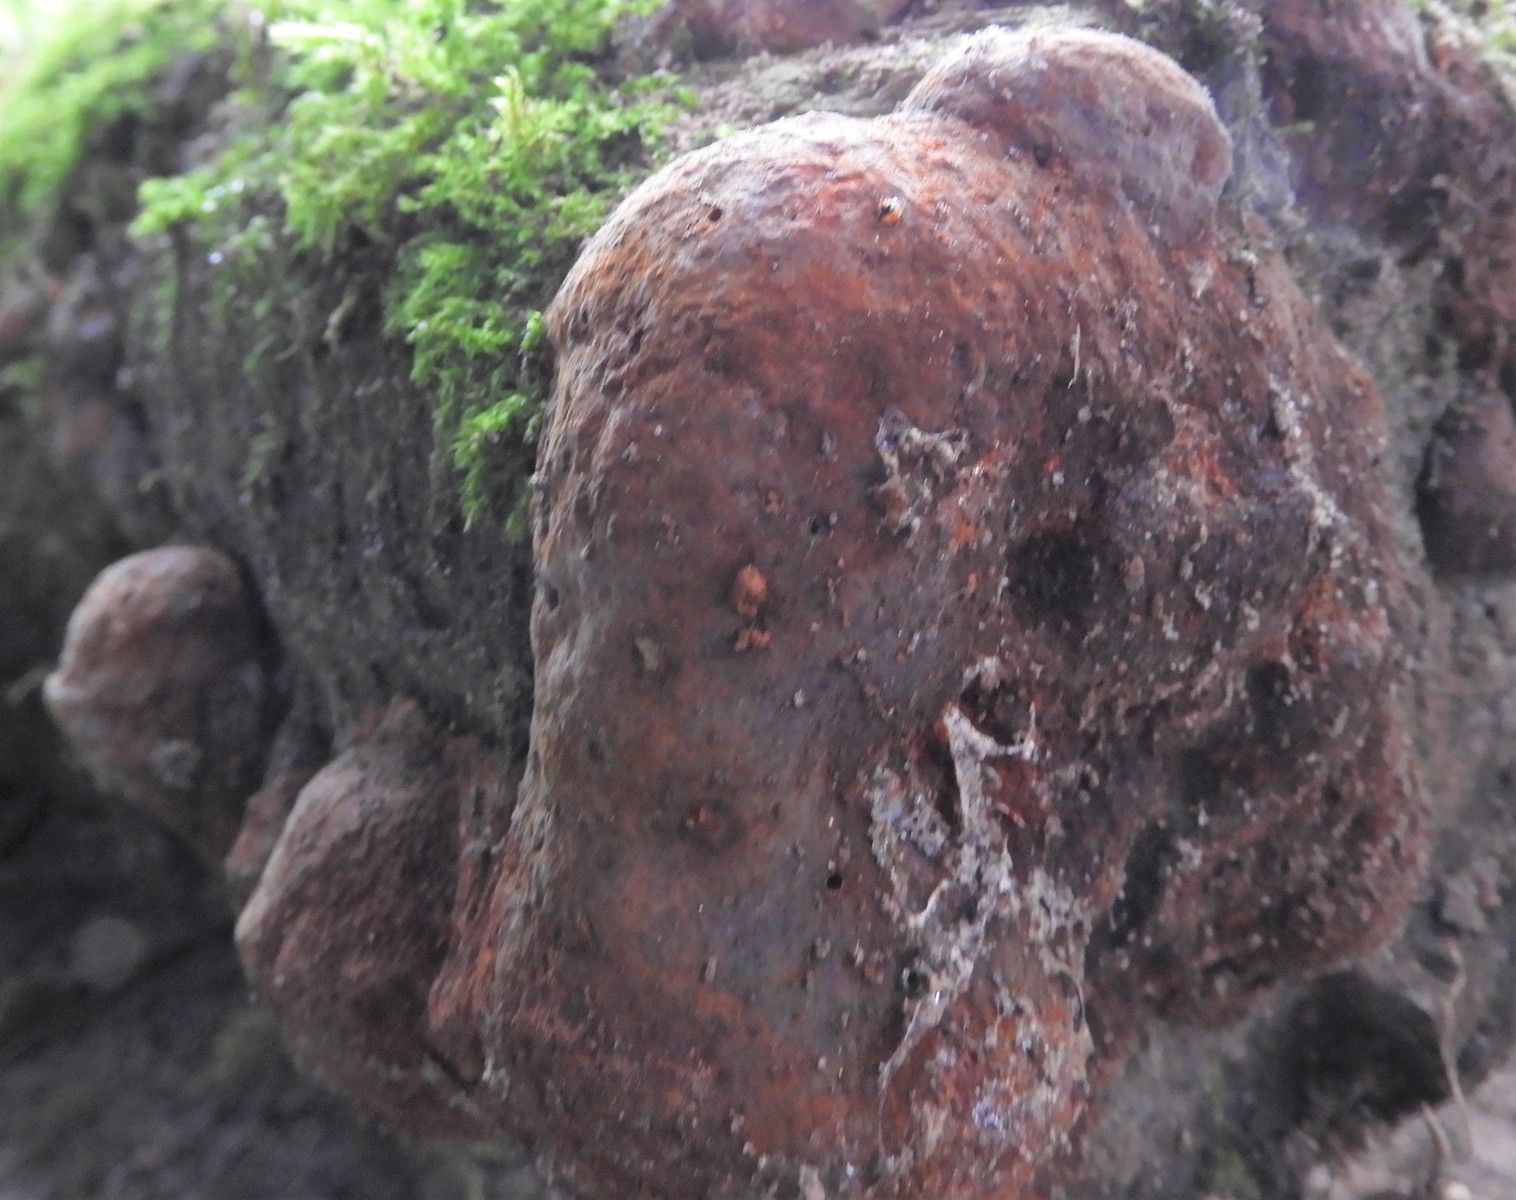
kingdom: Fungi
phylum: Basidiomycota
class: Agaricomycetes
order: Polyporales
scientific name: Polyporales
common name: poresvampordenen
